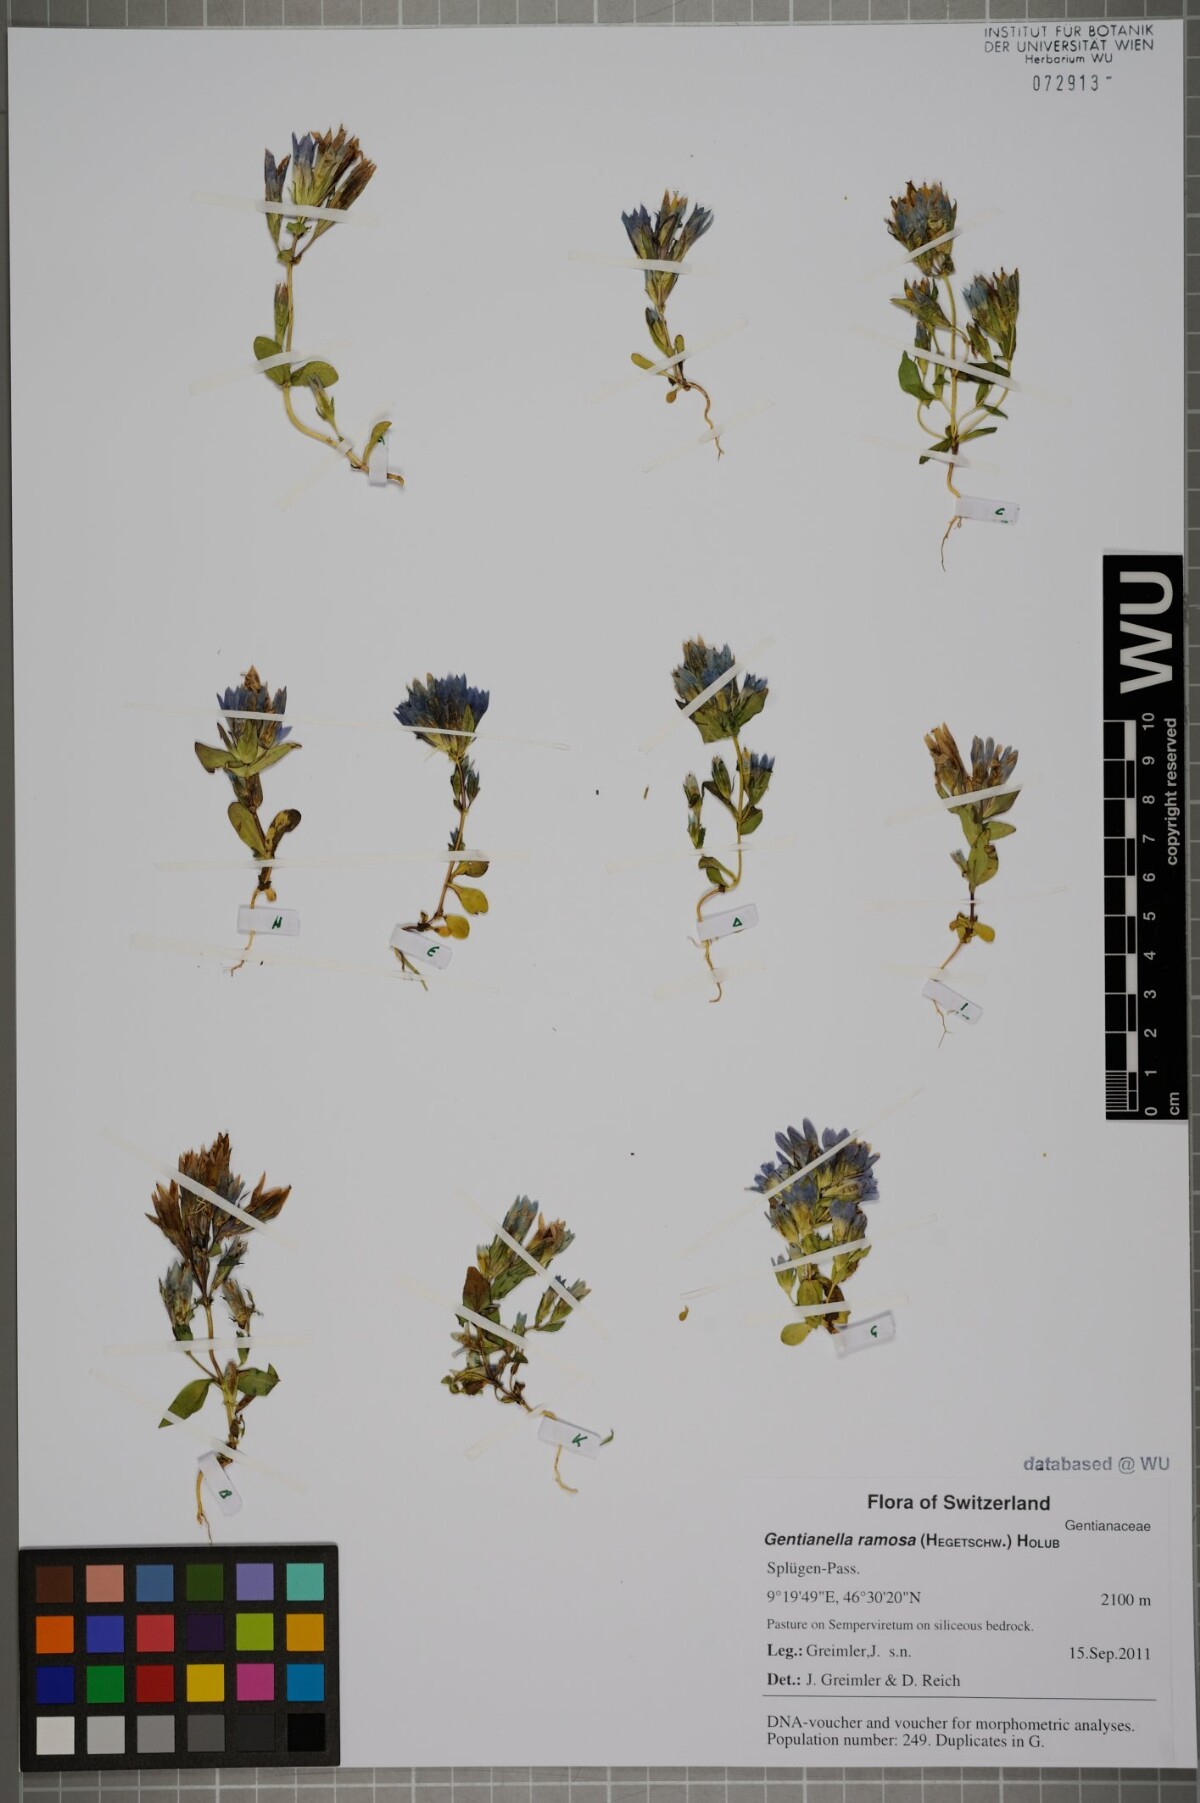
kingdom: Plantae
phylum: Tracheophyta
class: Magnoliopsida
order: Gentianales
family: Gentianaceae
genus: Gentianella
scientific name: Gentianella ramosa
